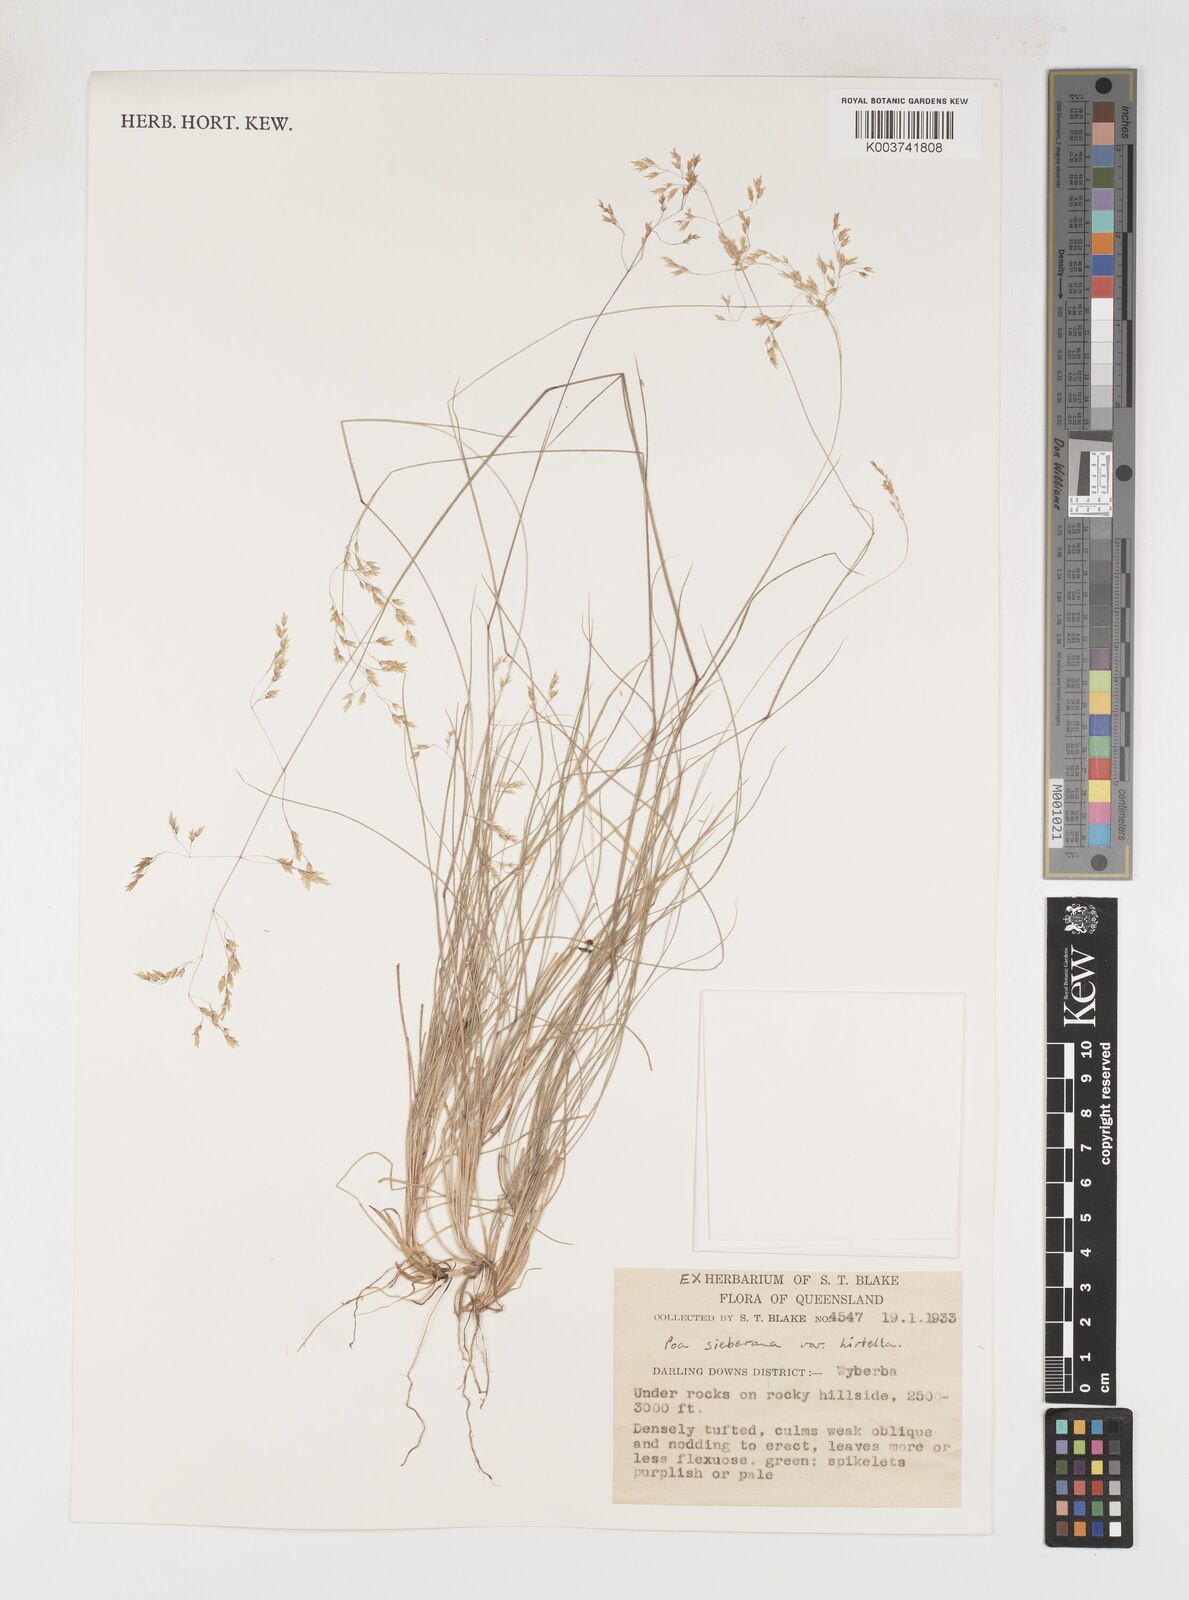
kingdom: Plantae
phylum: Tracheophyta
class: Liliopsida
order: Poales
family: Poaceae
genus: Poa
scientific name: Poa sieberiana
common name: Tussock poa
